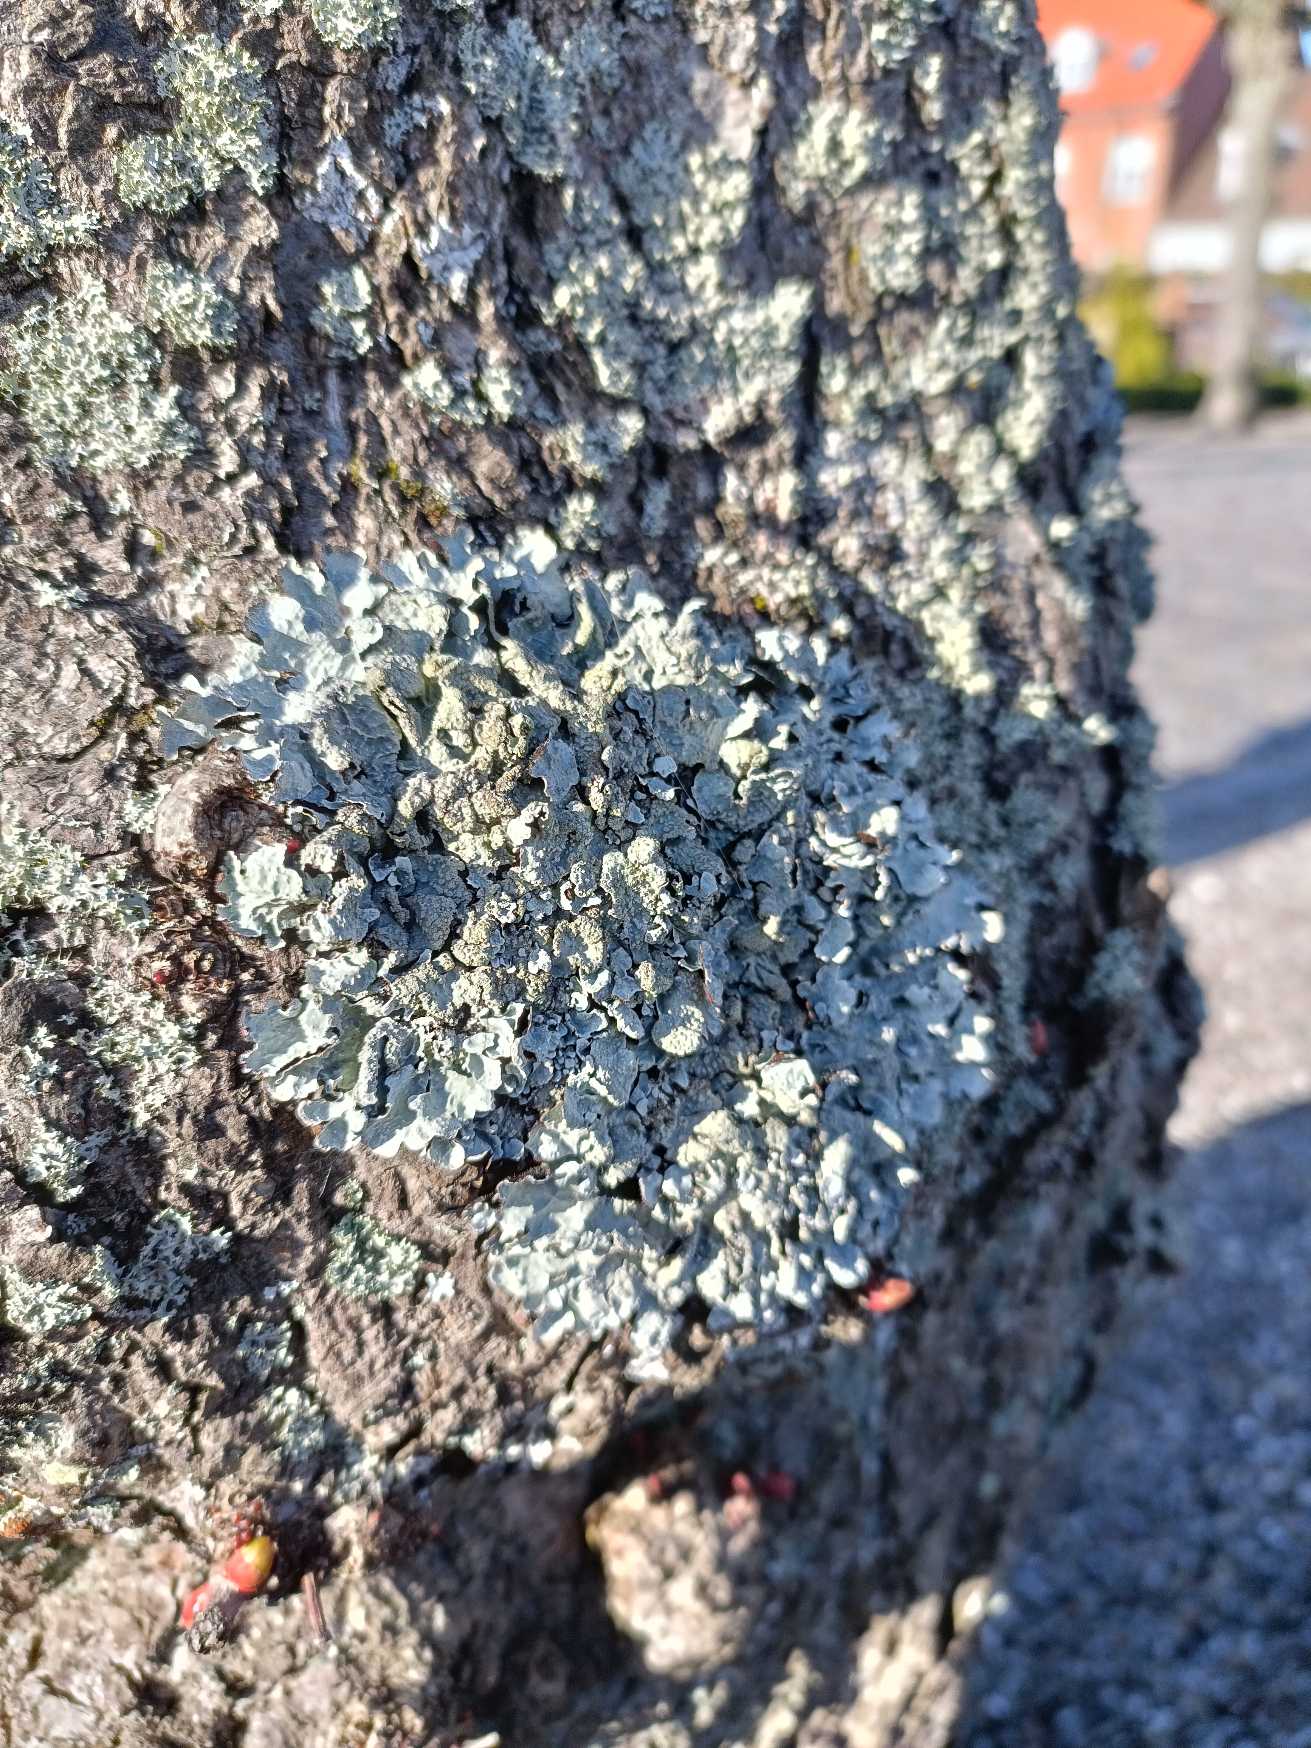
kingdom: Fungi
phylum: Ascomycota
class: Lecanoromycetes
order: Lecanorales
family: Parmeliaceae
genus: Parmelia
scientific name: Parmelia sulcata
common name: Rynket skållav
